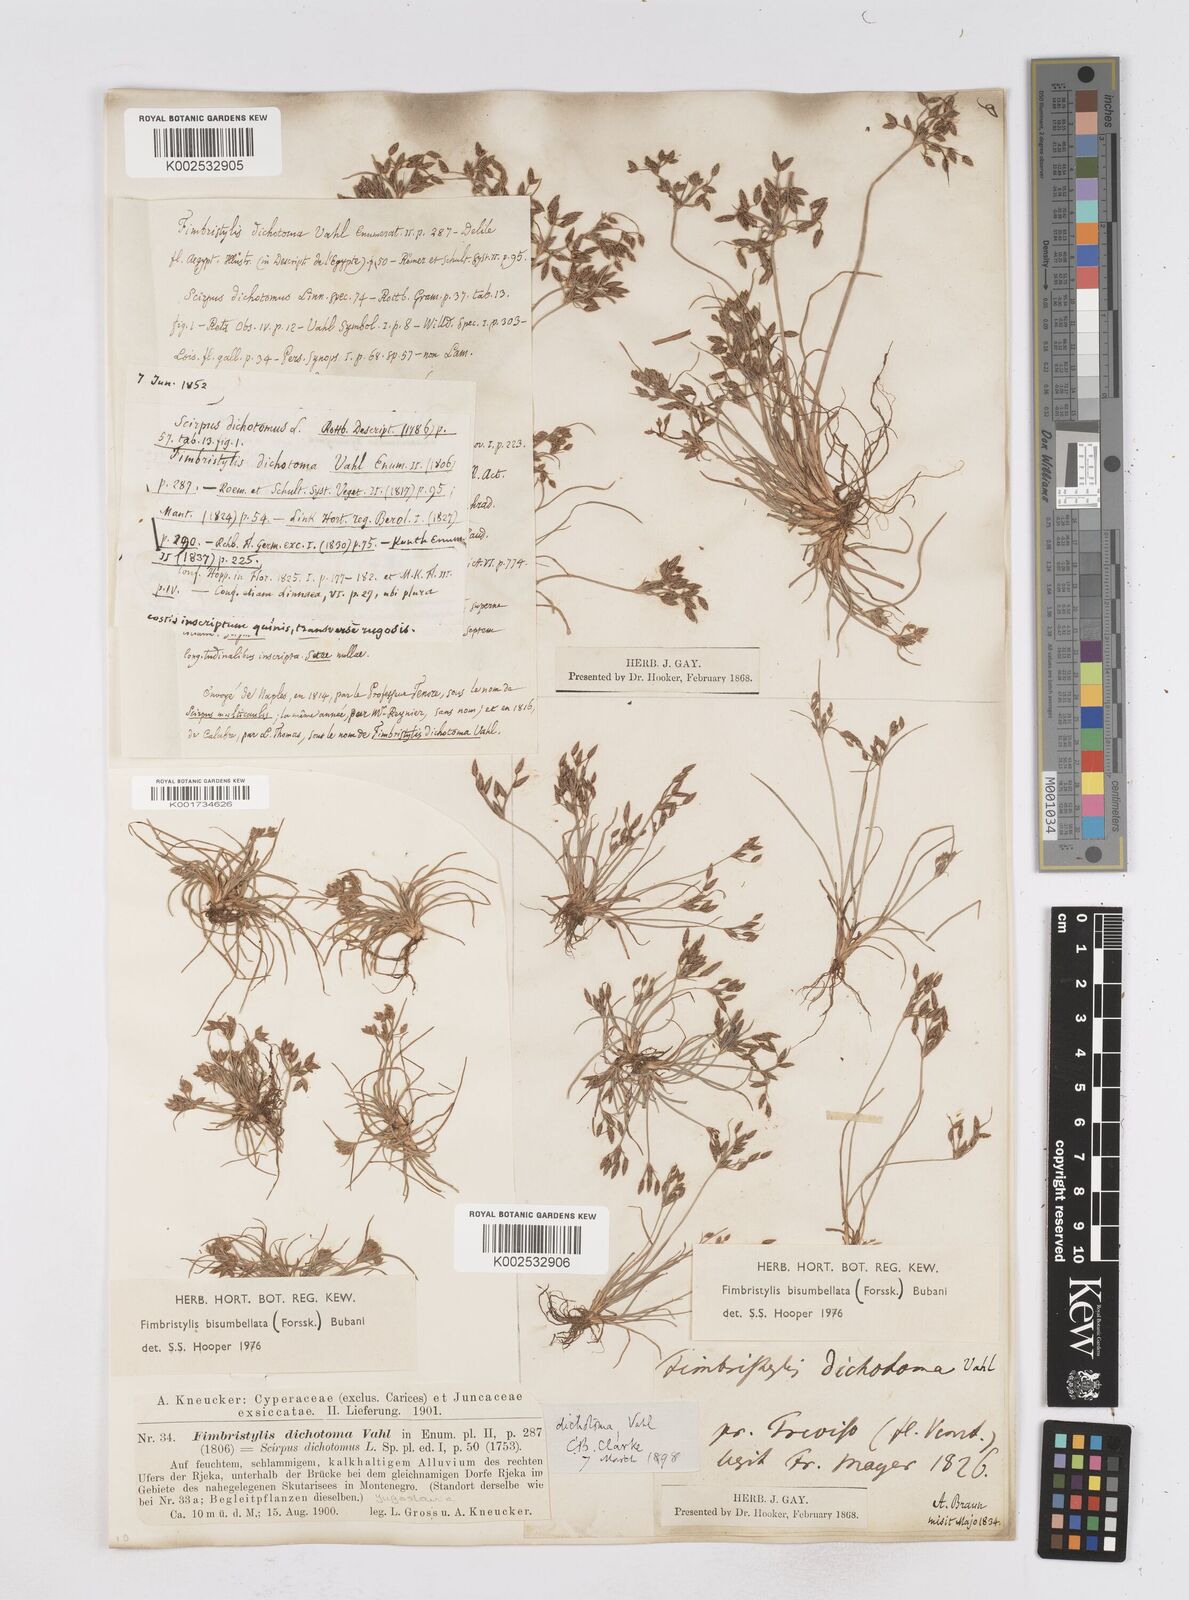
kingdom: Plantae
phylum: Tracheophyta
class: Liliopsida
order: Poales
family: Cyperaceae
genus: Fimbristylis
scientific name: Fimbristylis bisumbellata
